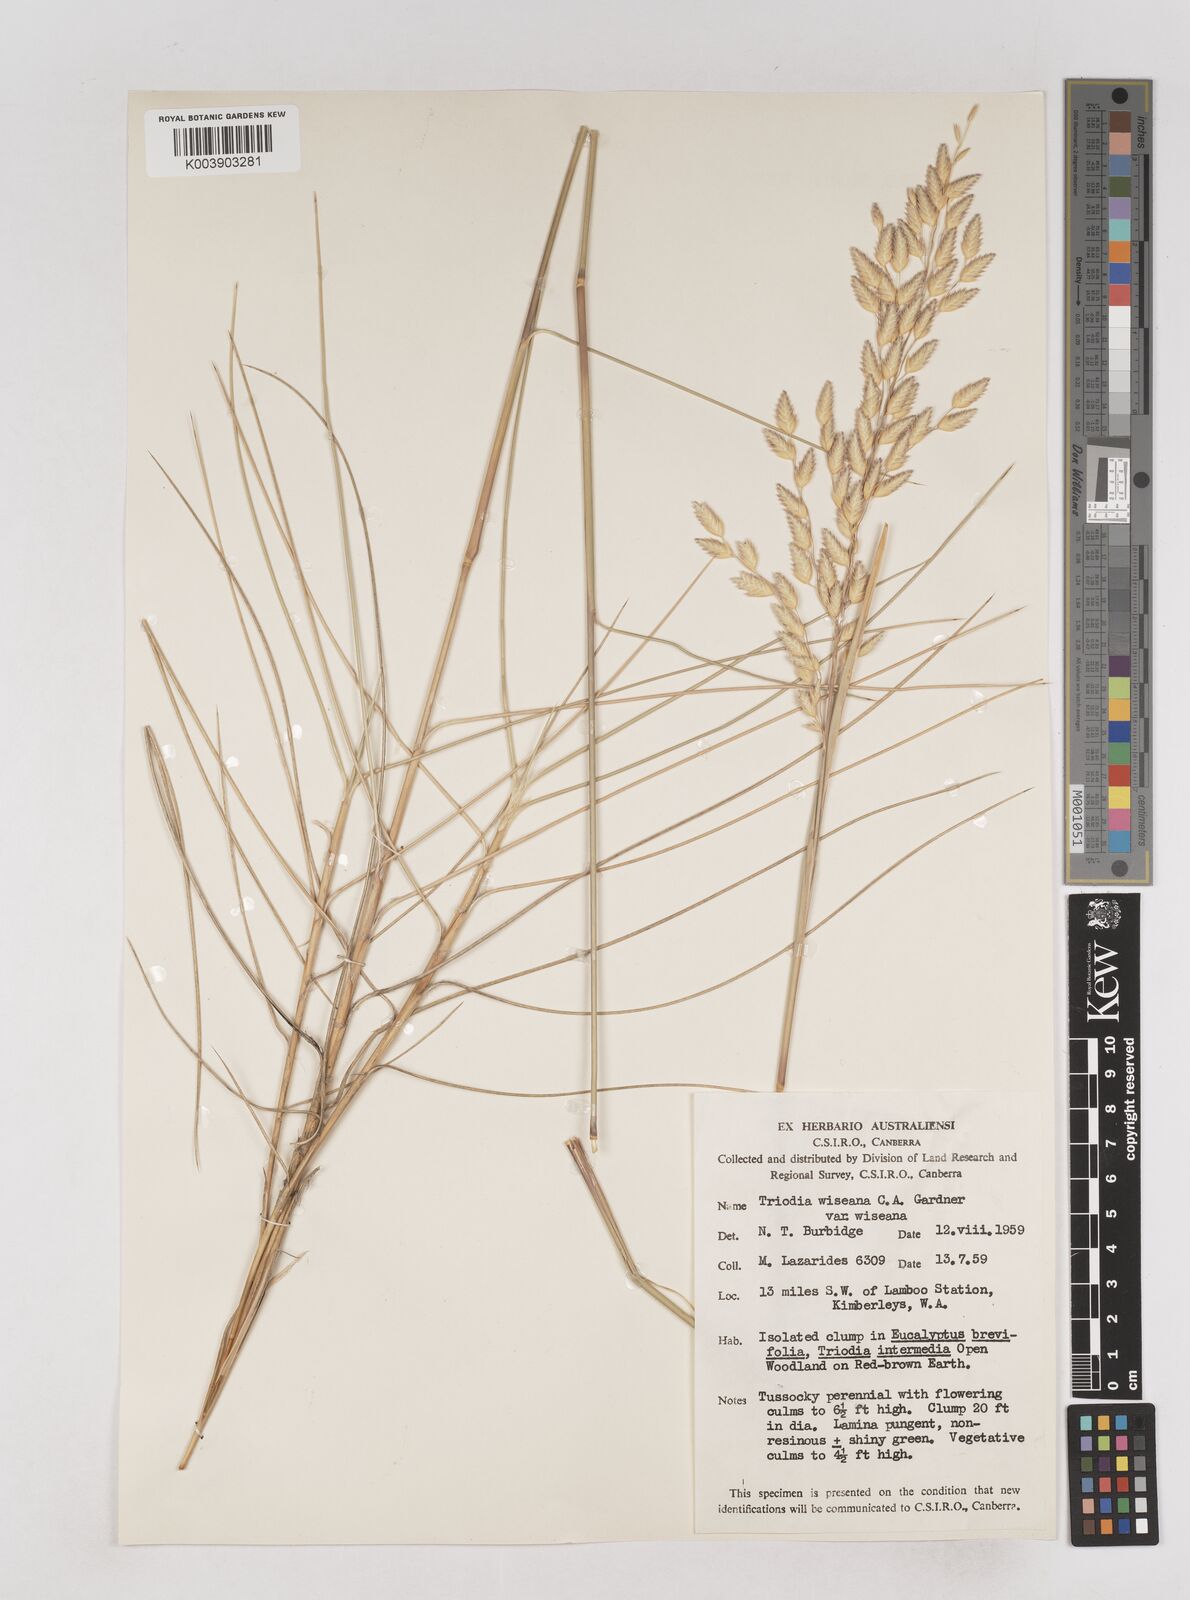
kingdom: Plantae
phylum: Tracheophyta
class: Liliopsida
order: Poales
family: Poaceae
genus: Triodia
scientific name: Triodia wiseana
